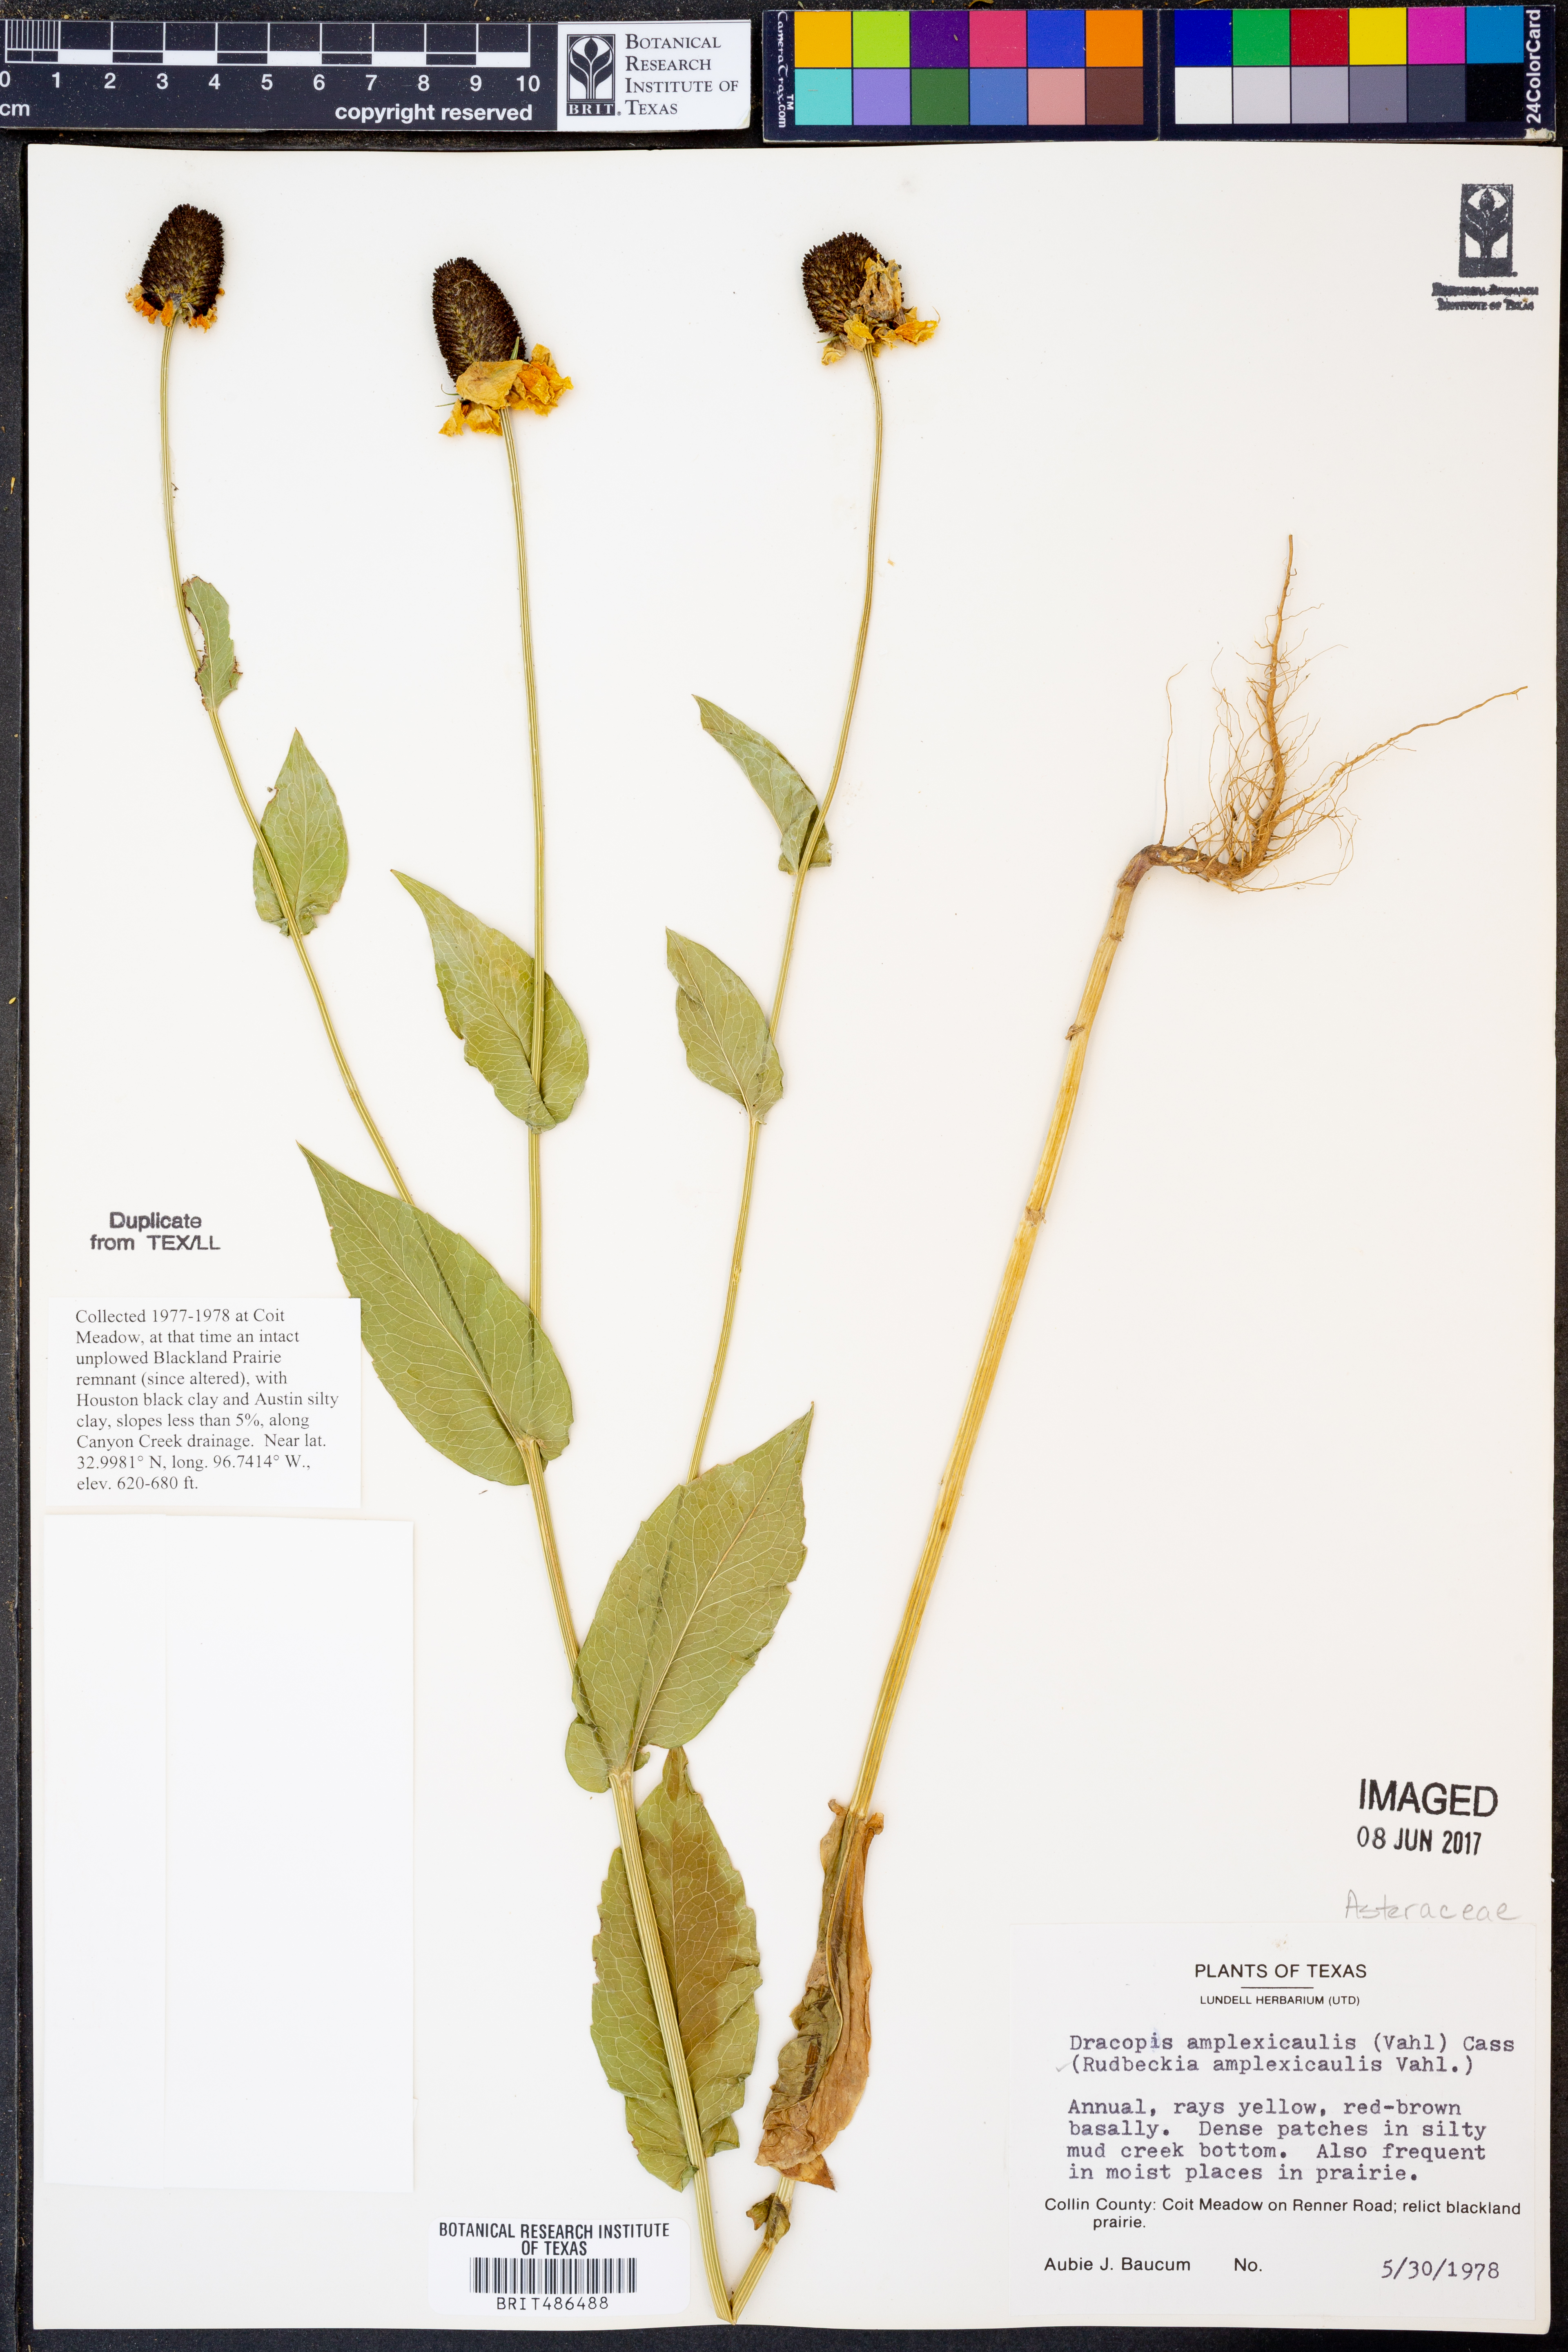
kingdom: Plantae
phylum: Tracheophyta
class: Magnoliopsida
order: Asterales
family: Asteraceae
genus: Rudbeckia
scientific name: Rudbeckia amplexicaulis
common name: Clasping-leaf coneflower
